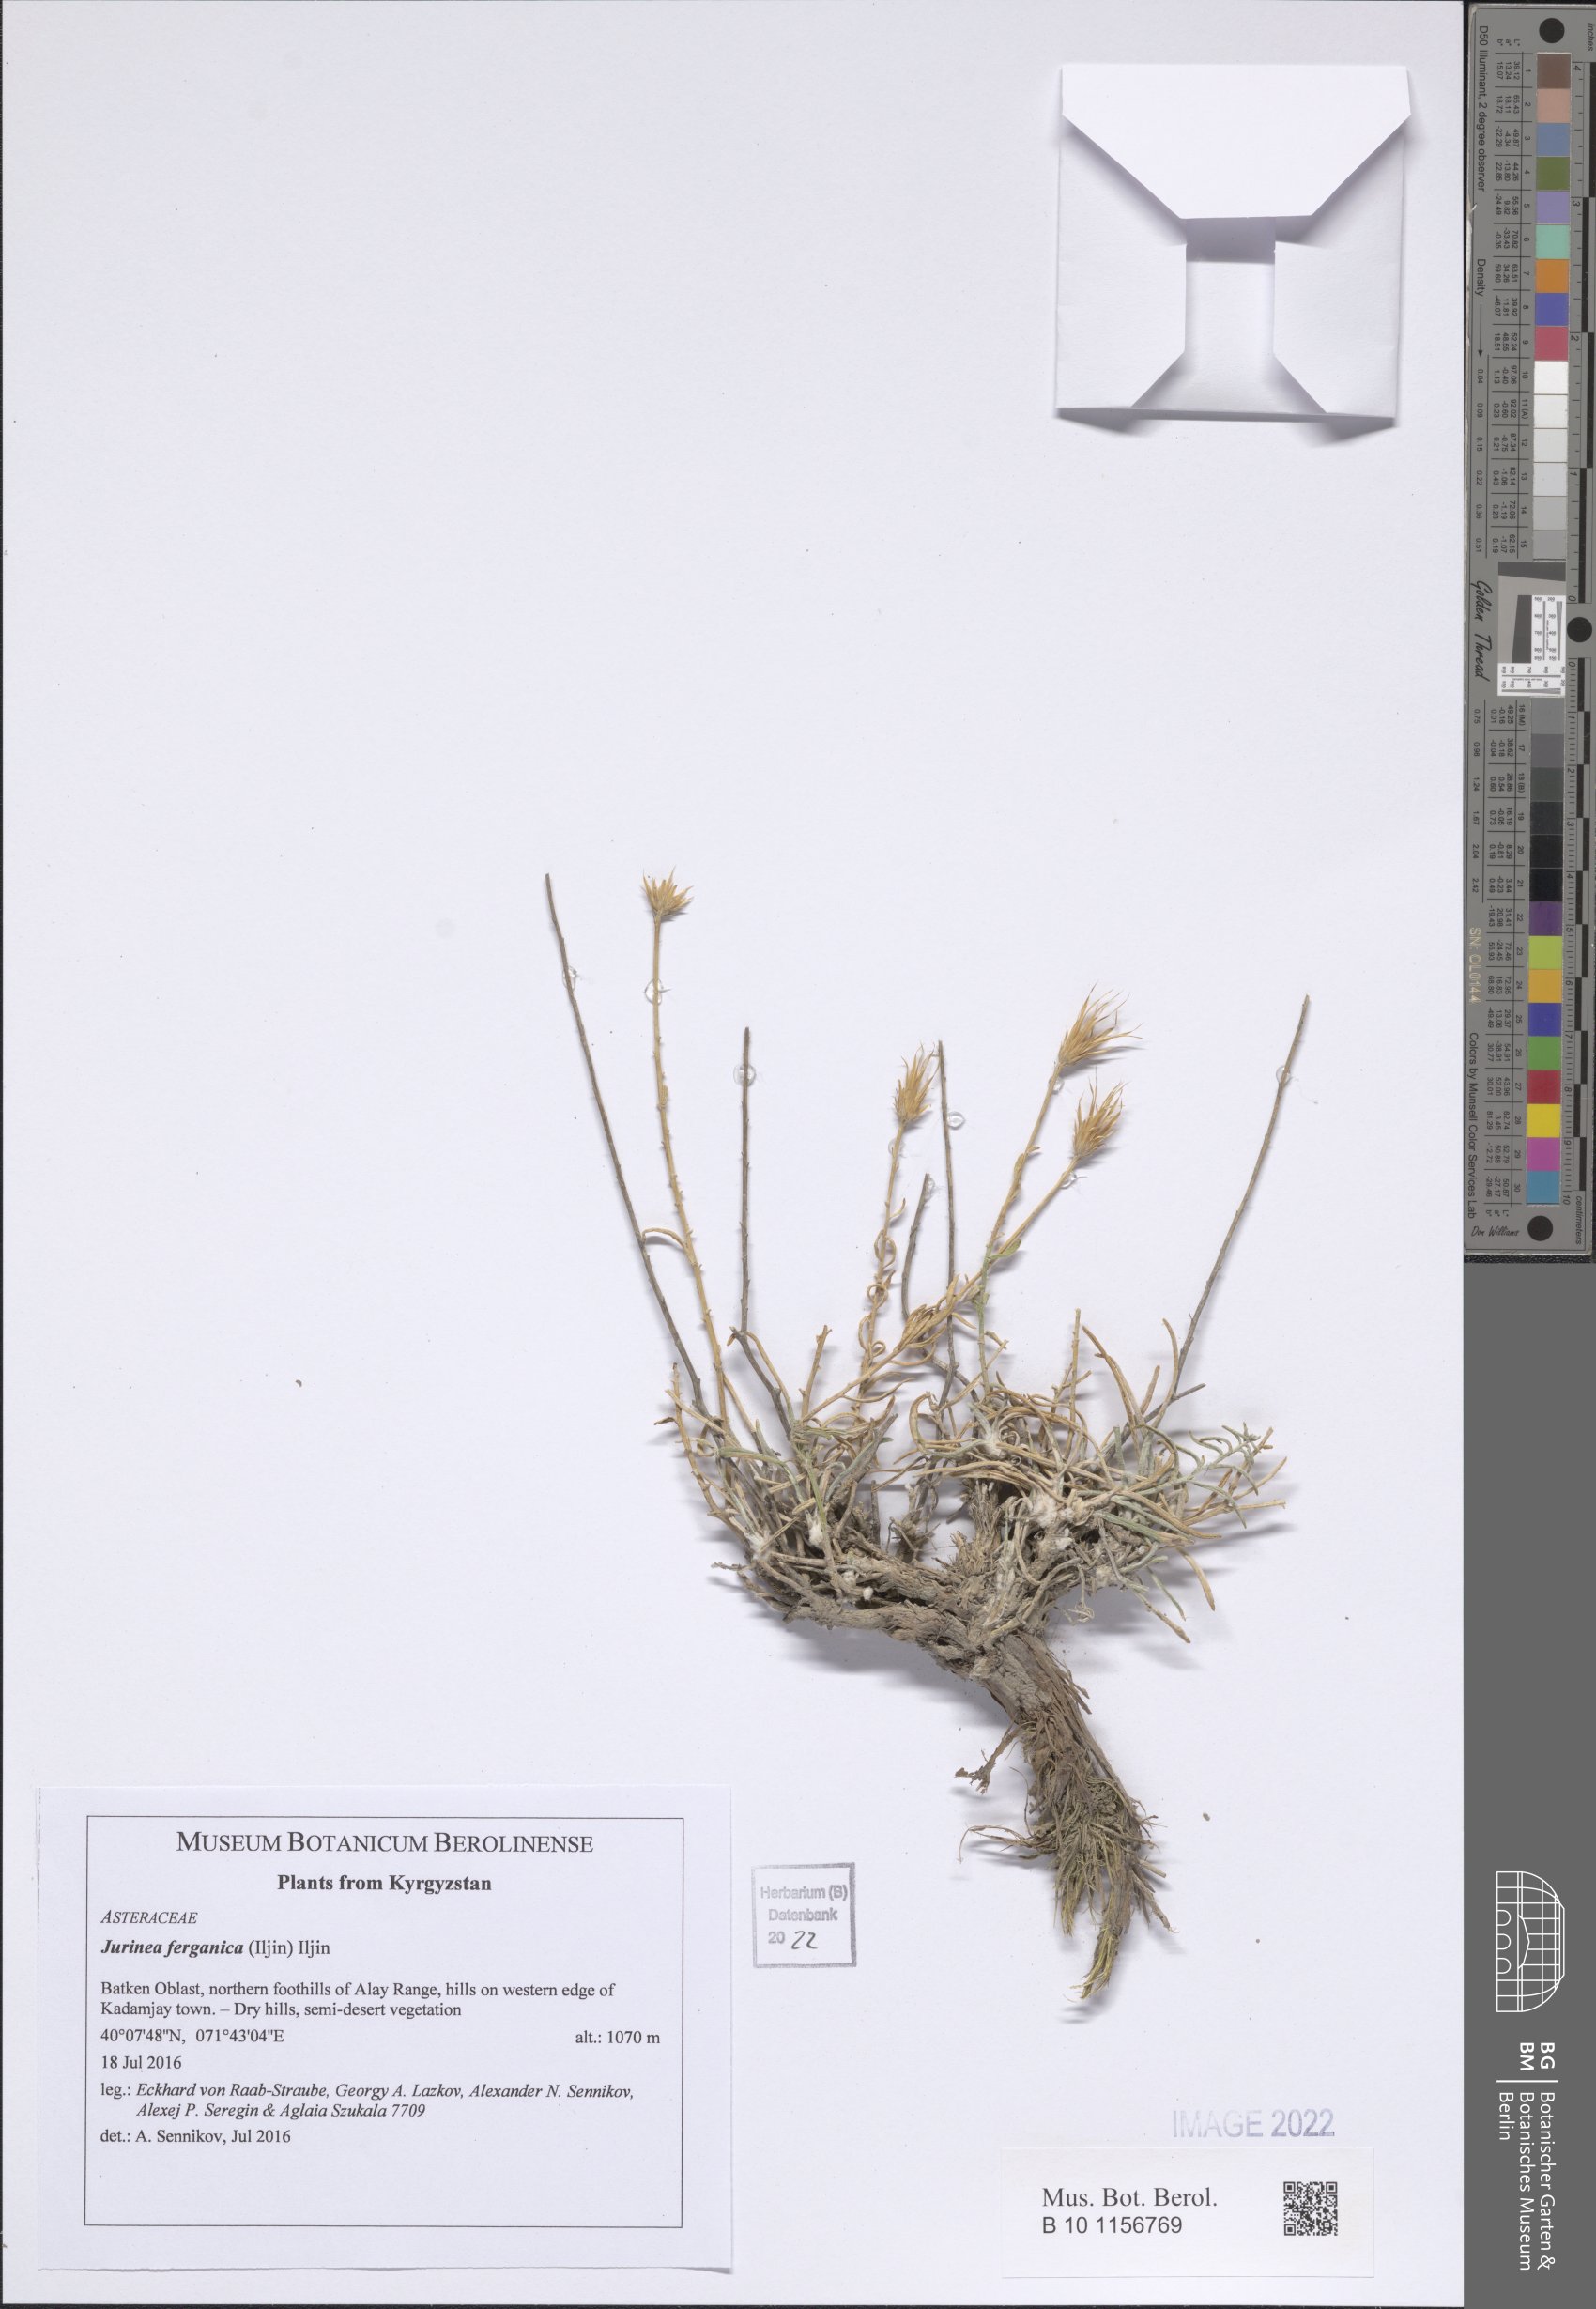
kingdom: Plantae
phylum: Tracheophyta
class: Magnoliopsida
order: Asterales
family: Asteraceae
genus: Jurinea
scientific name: Jurinea ferganica
